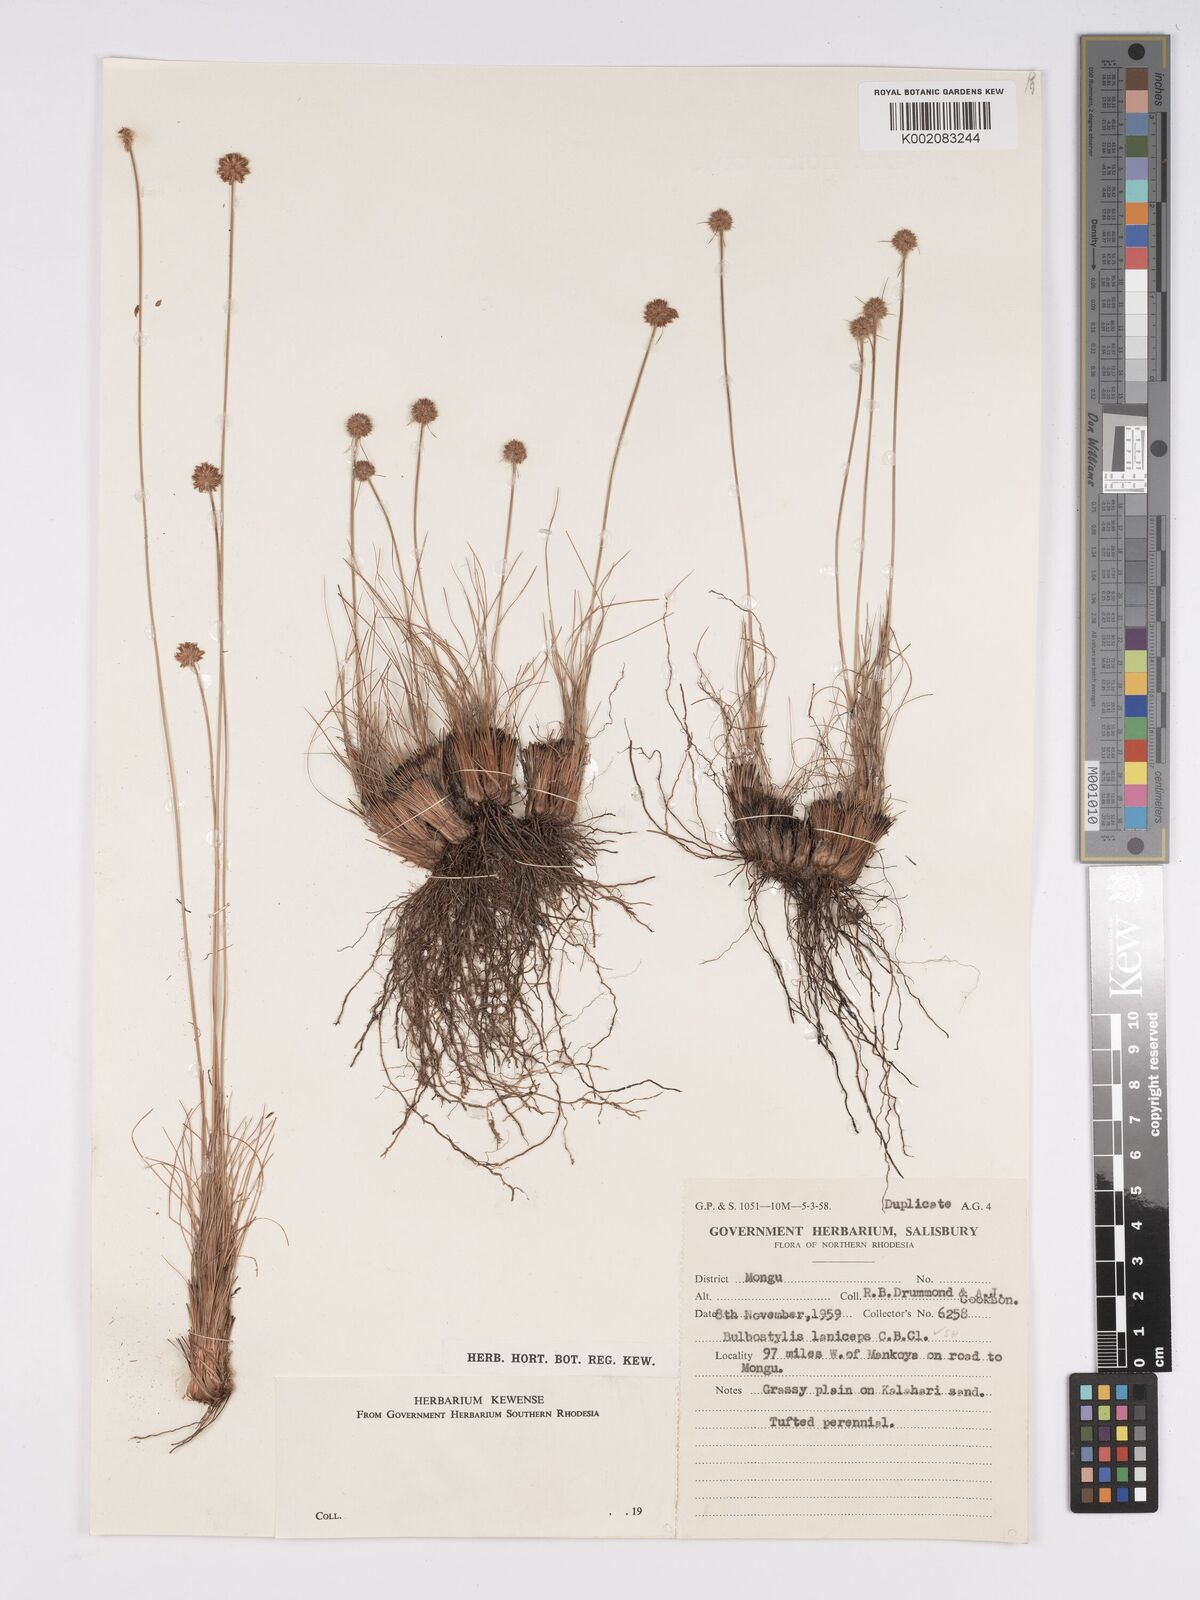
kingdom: Plantae
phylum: Tracheophyta
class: Liliopsida
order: Poales
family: Cyperaceae
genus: Bulbostylis
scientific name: Bulbostylis laniceps
